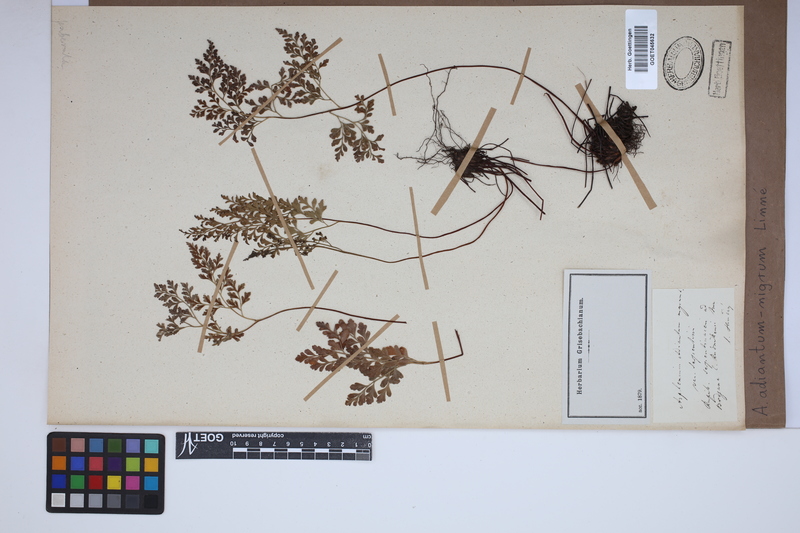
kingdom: Plantae
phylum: Tracheophyta
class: Polypodiopsida
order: Polypodiales
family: Aspleniaceae
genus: Asplenium
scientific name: Asplenium adiantum-nigrum
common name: Black spleenwort
